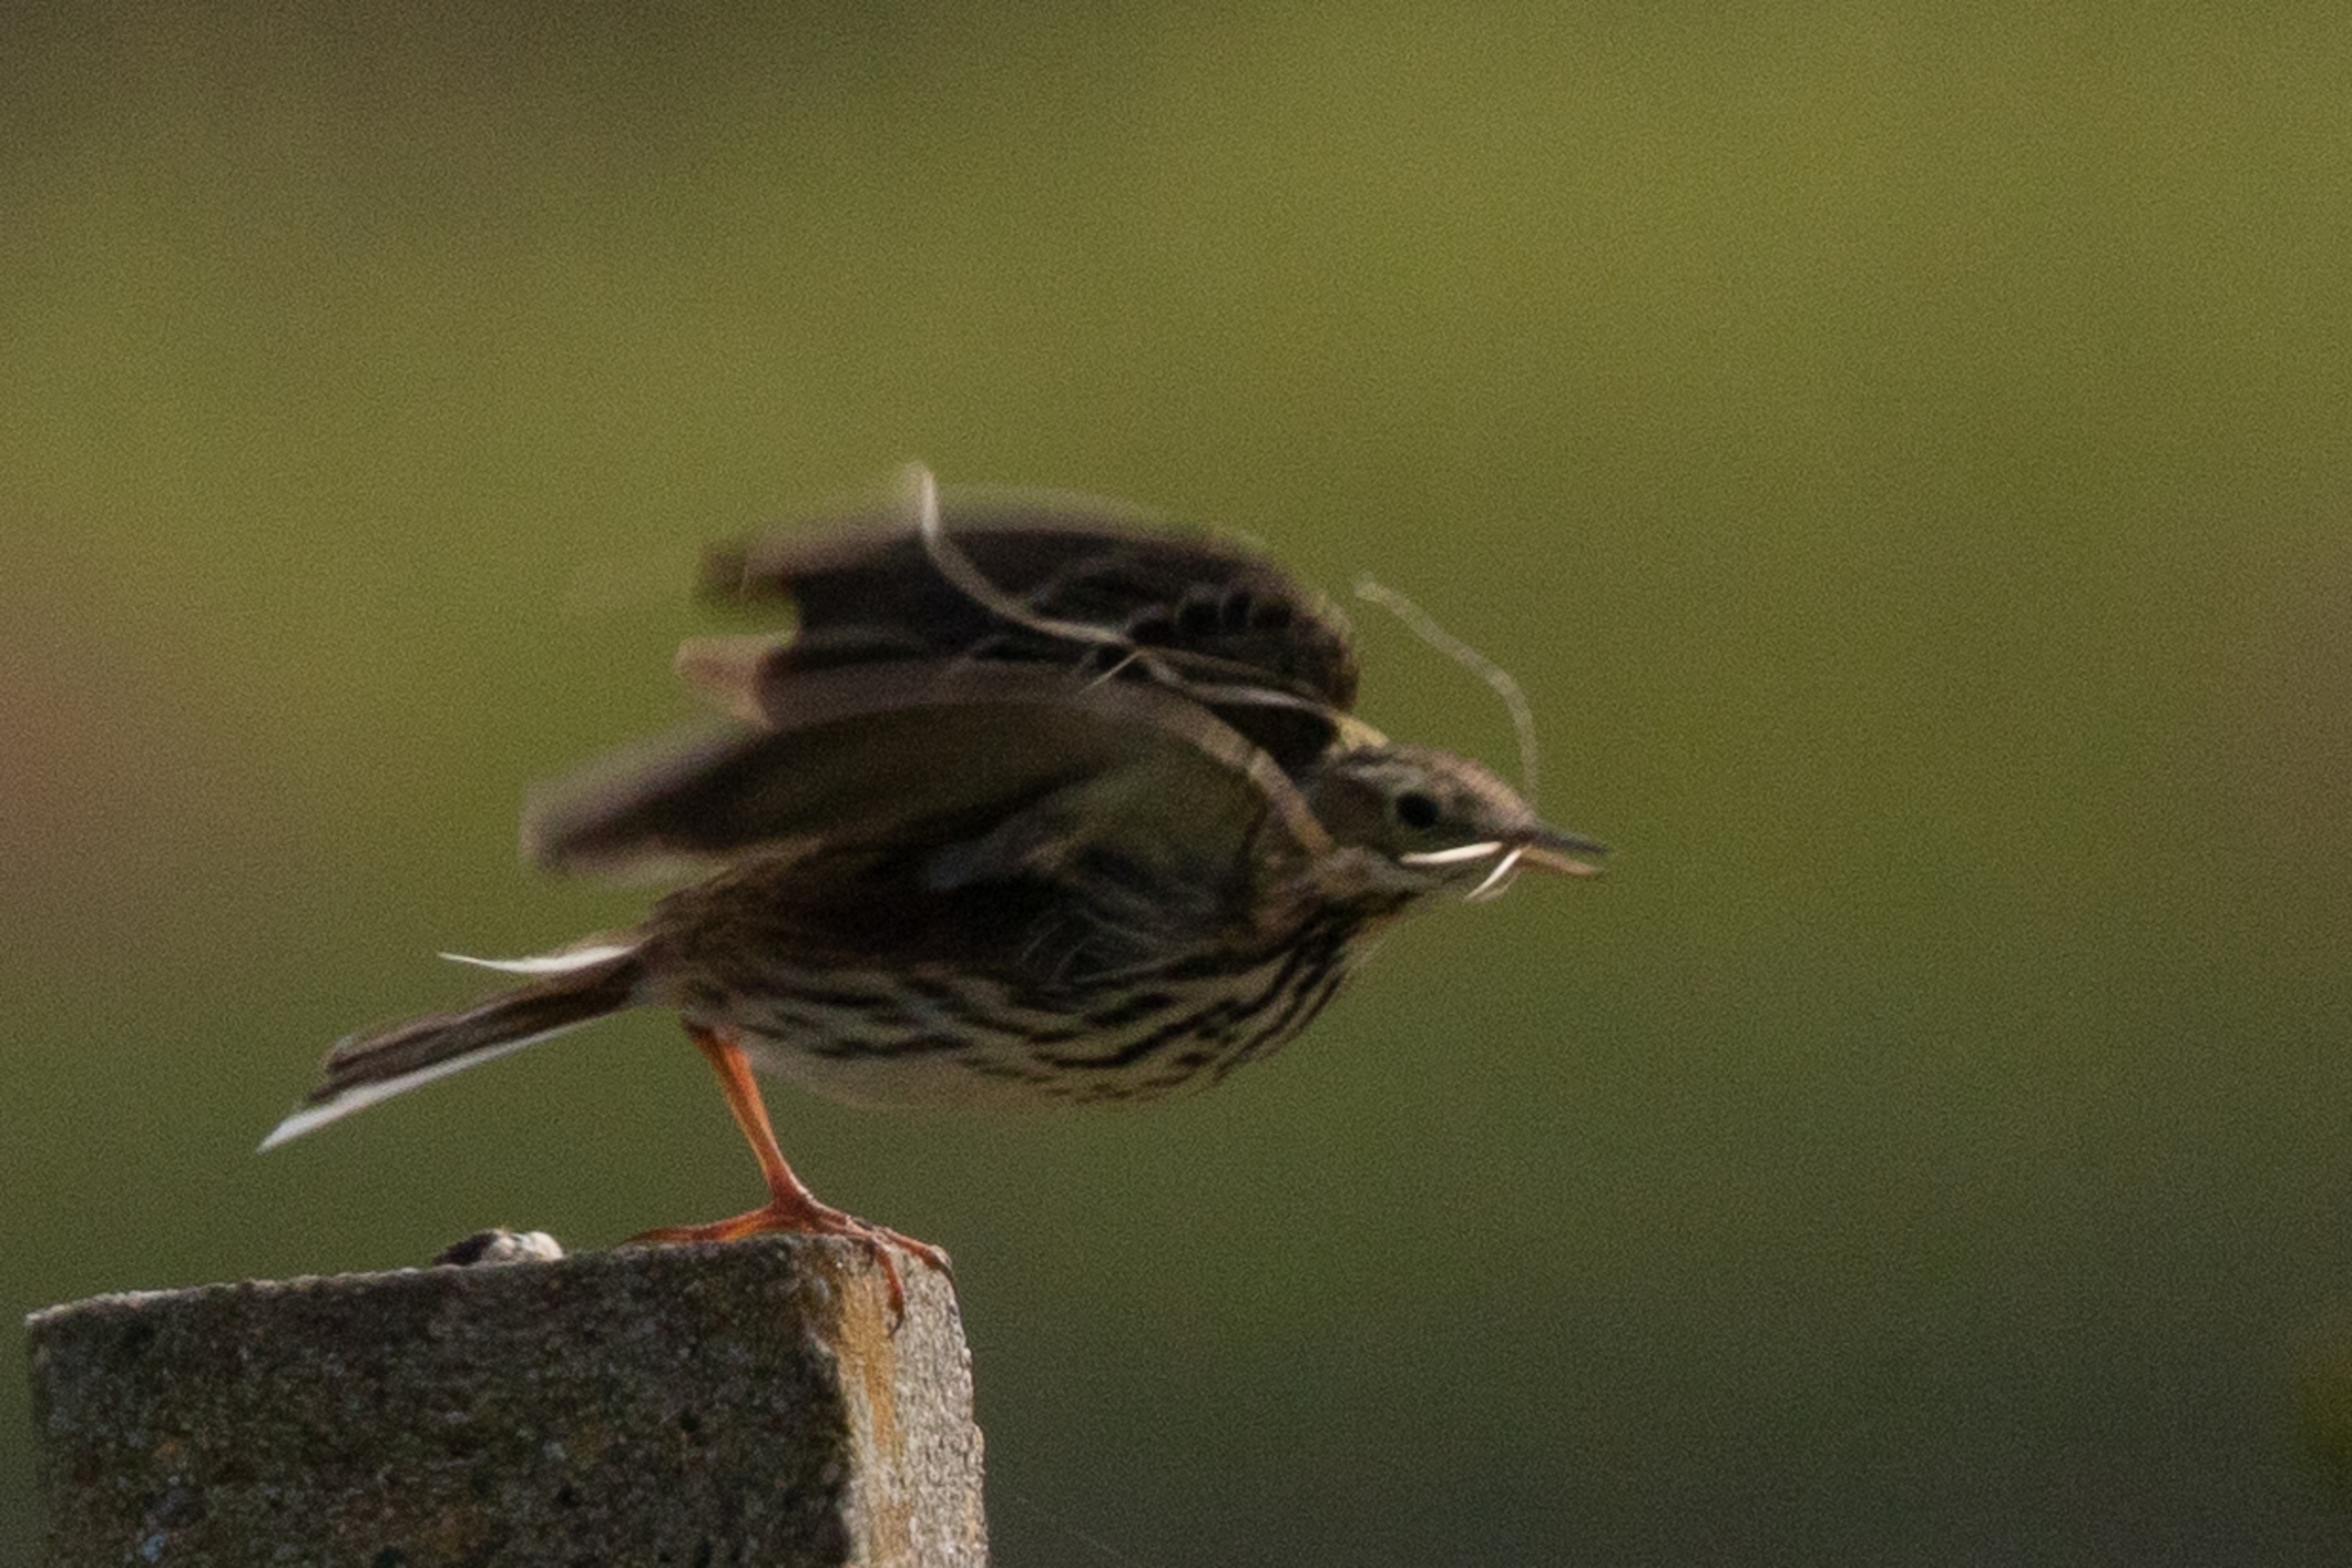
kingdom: Animalia
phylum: Chordata
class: Aves
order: Passeriformes
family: Motacillidae
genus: Anthus
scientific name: Anthus pratensis
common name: Engpiber
